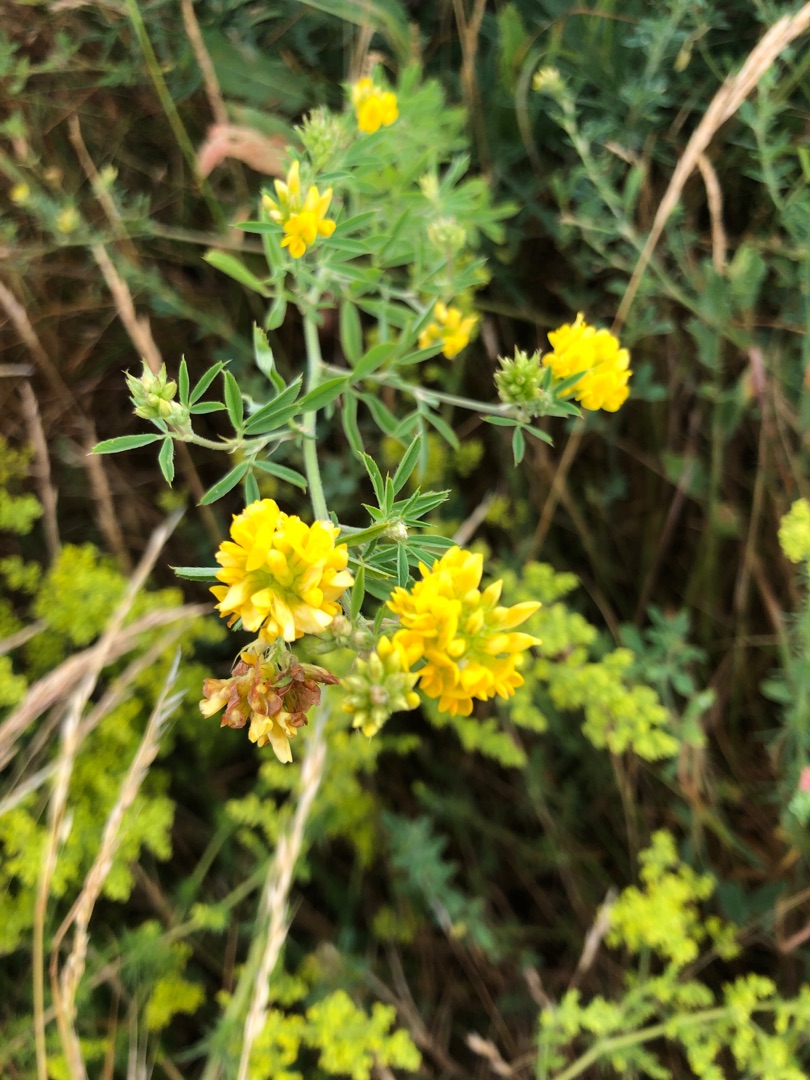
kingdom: Plantae
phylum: Tracheophyta
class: Magnoliopsida
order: Fabales
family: Fabaceae
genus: Medicago
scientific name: Medicago falcata
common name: Segl-sneglebælg
